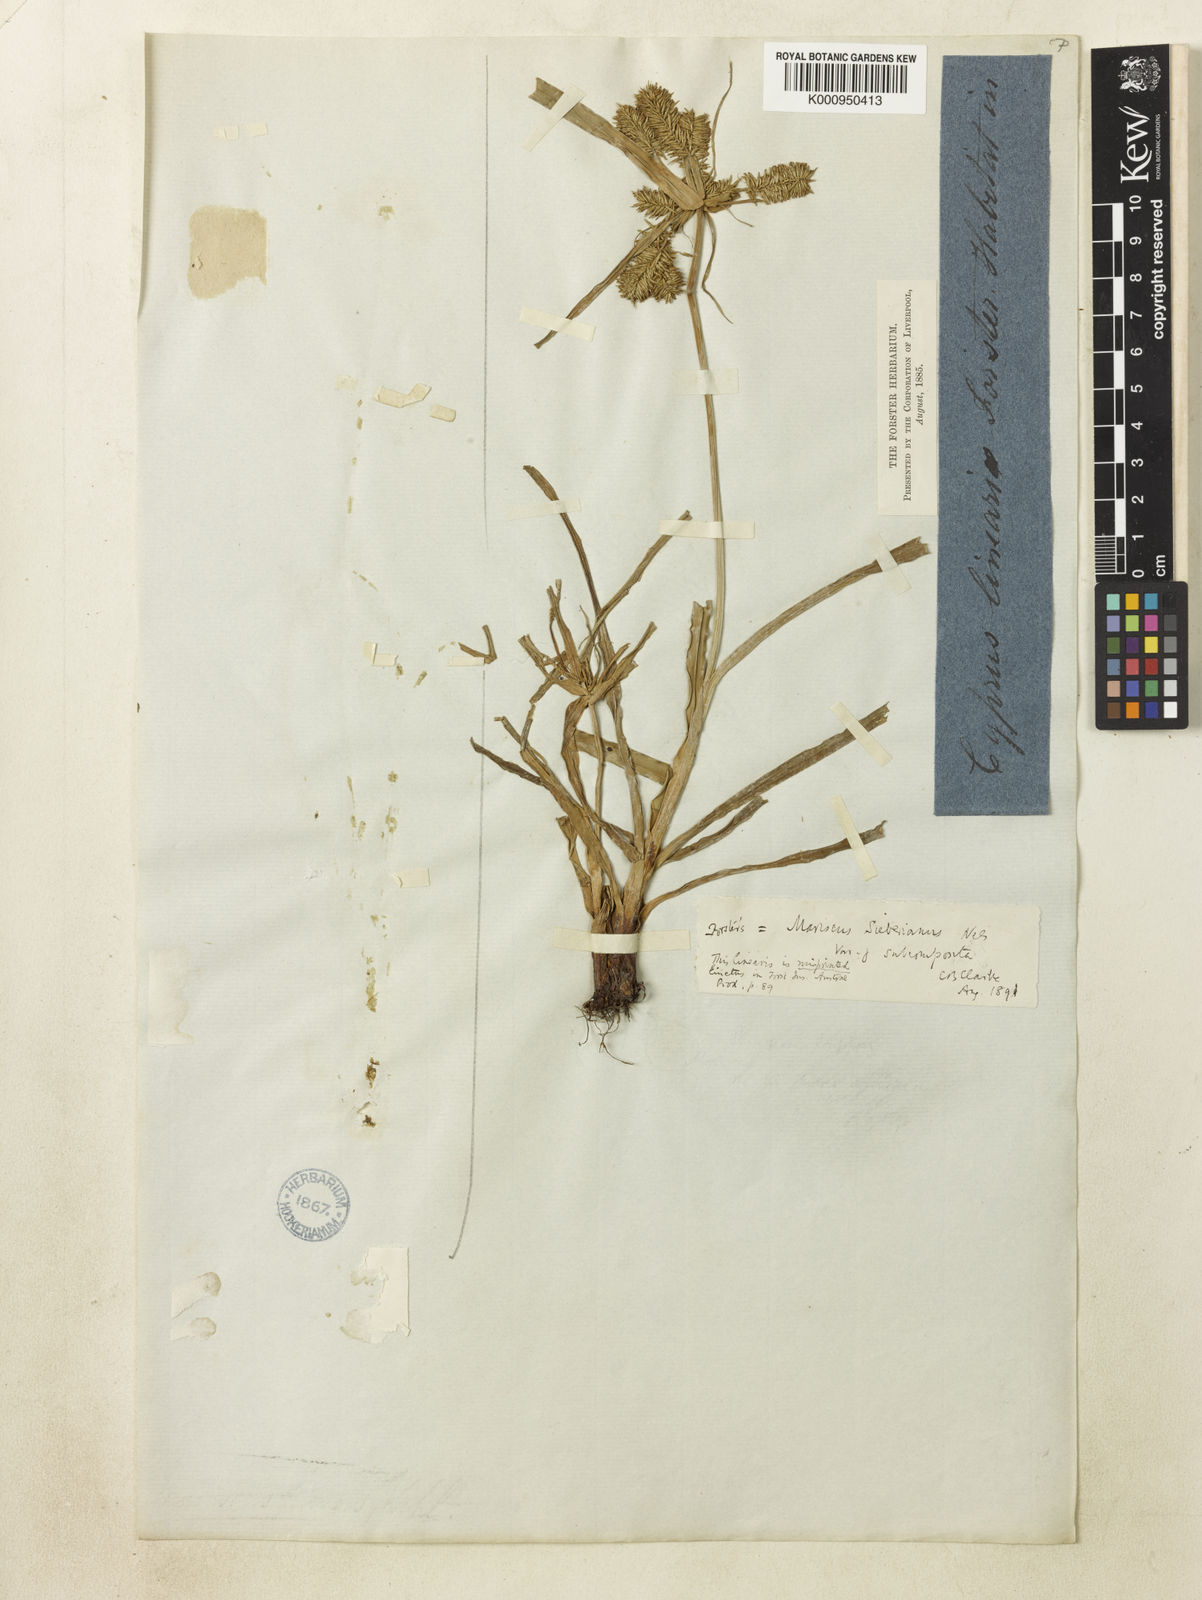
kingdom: Plantae
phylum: Tracheophyta
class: Liliopsida
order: Poales
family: Cyperaceae
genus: Cyperus
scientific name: Cyperus cyperoides
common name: Pacific island flat sedge
